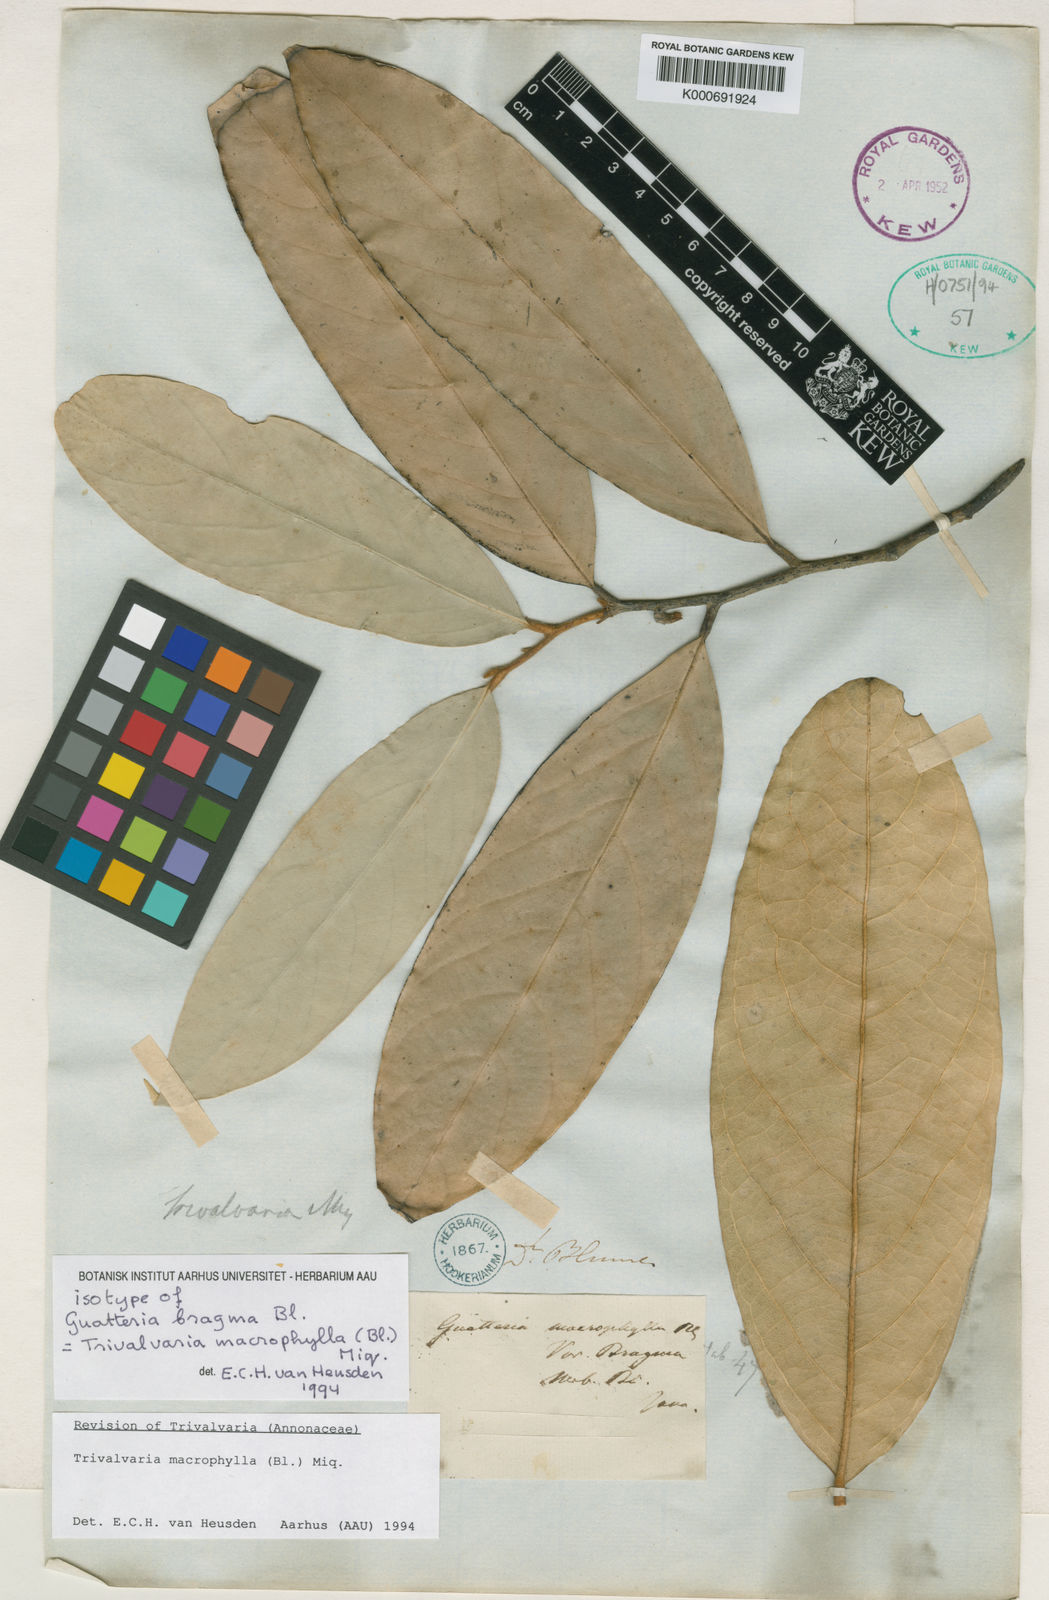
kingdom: Plantae
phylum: Tracheophyta
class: Magnoliopsida
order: Magnoliales
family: Annonaceae
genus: Trivalvaria
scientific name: Trivalvaria macrophylla
